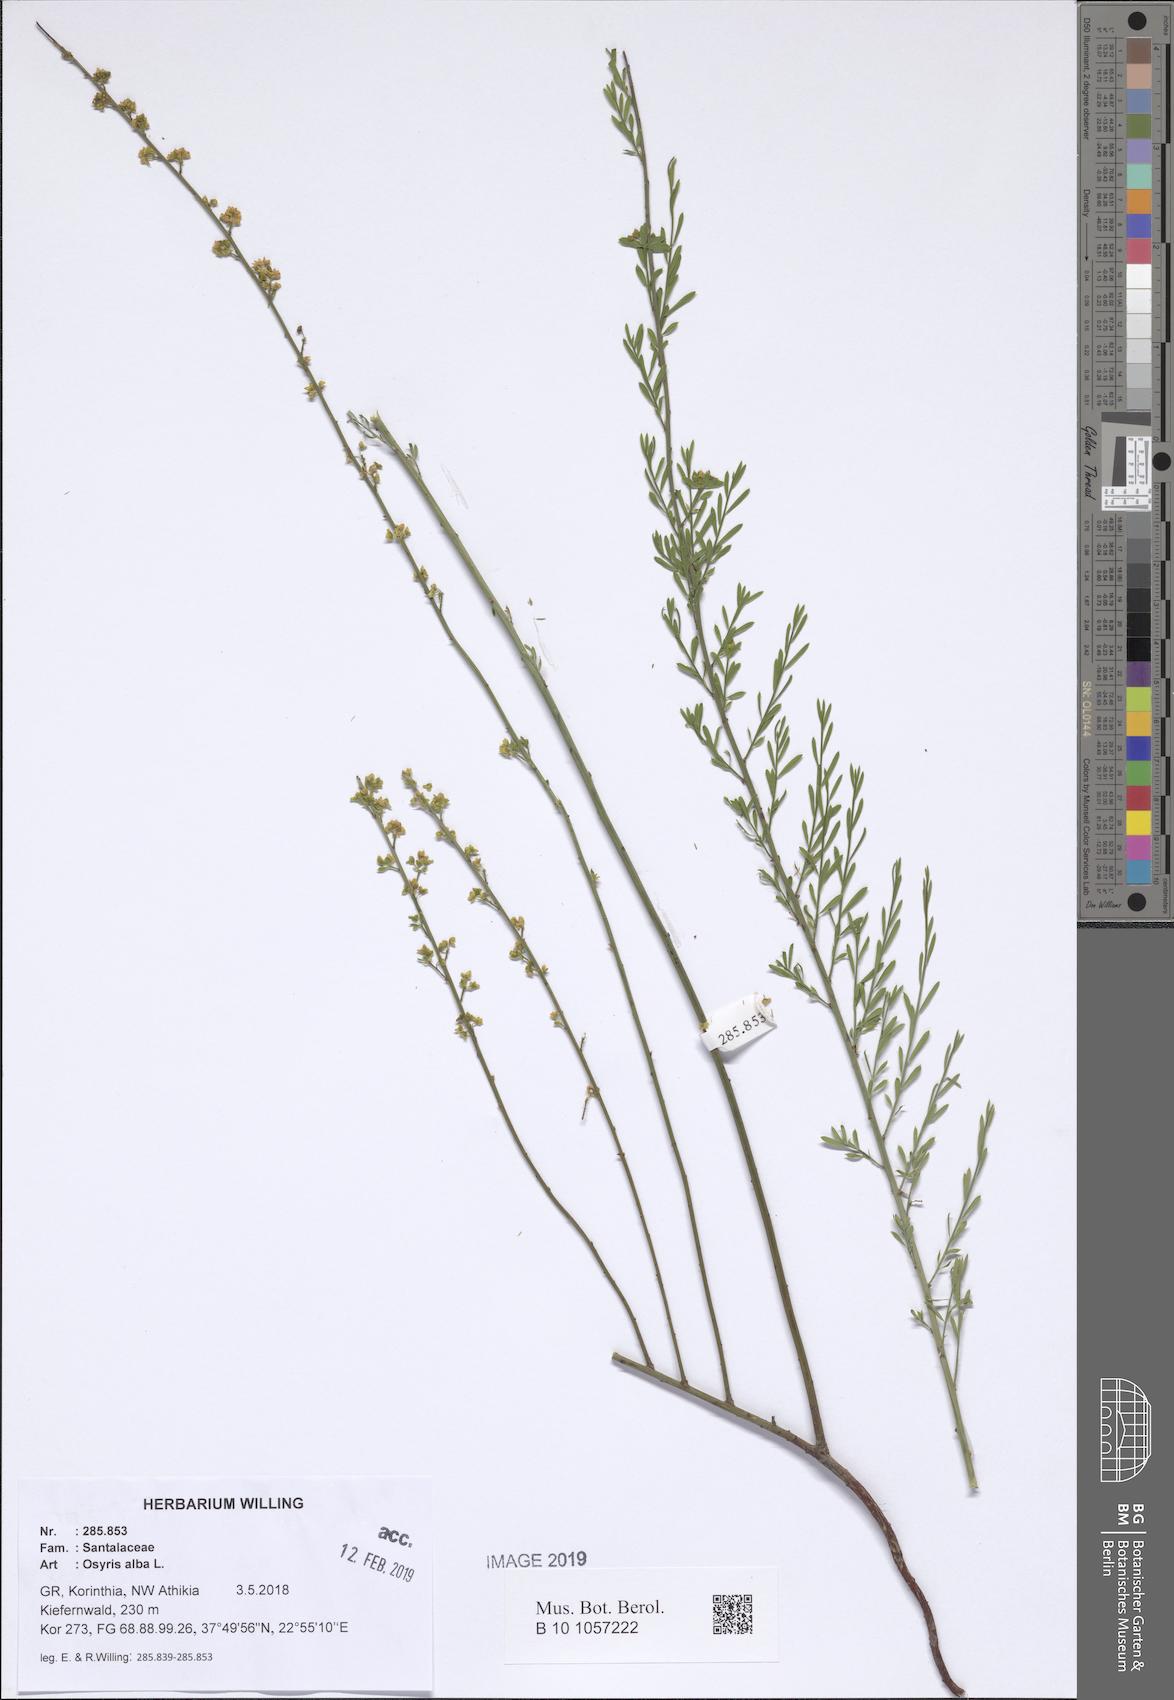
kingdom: Plantae
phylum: Tracheophyta
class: Magnoliopsida
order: Santalales
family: Santalaceae
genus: Osyris
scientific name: Osyris alba
